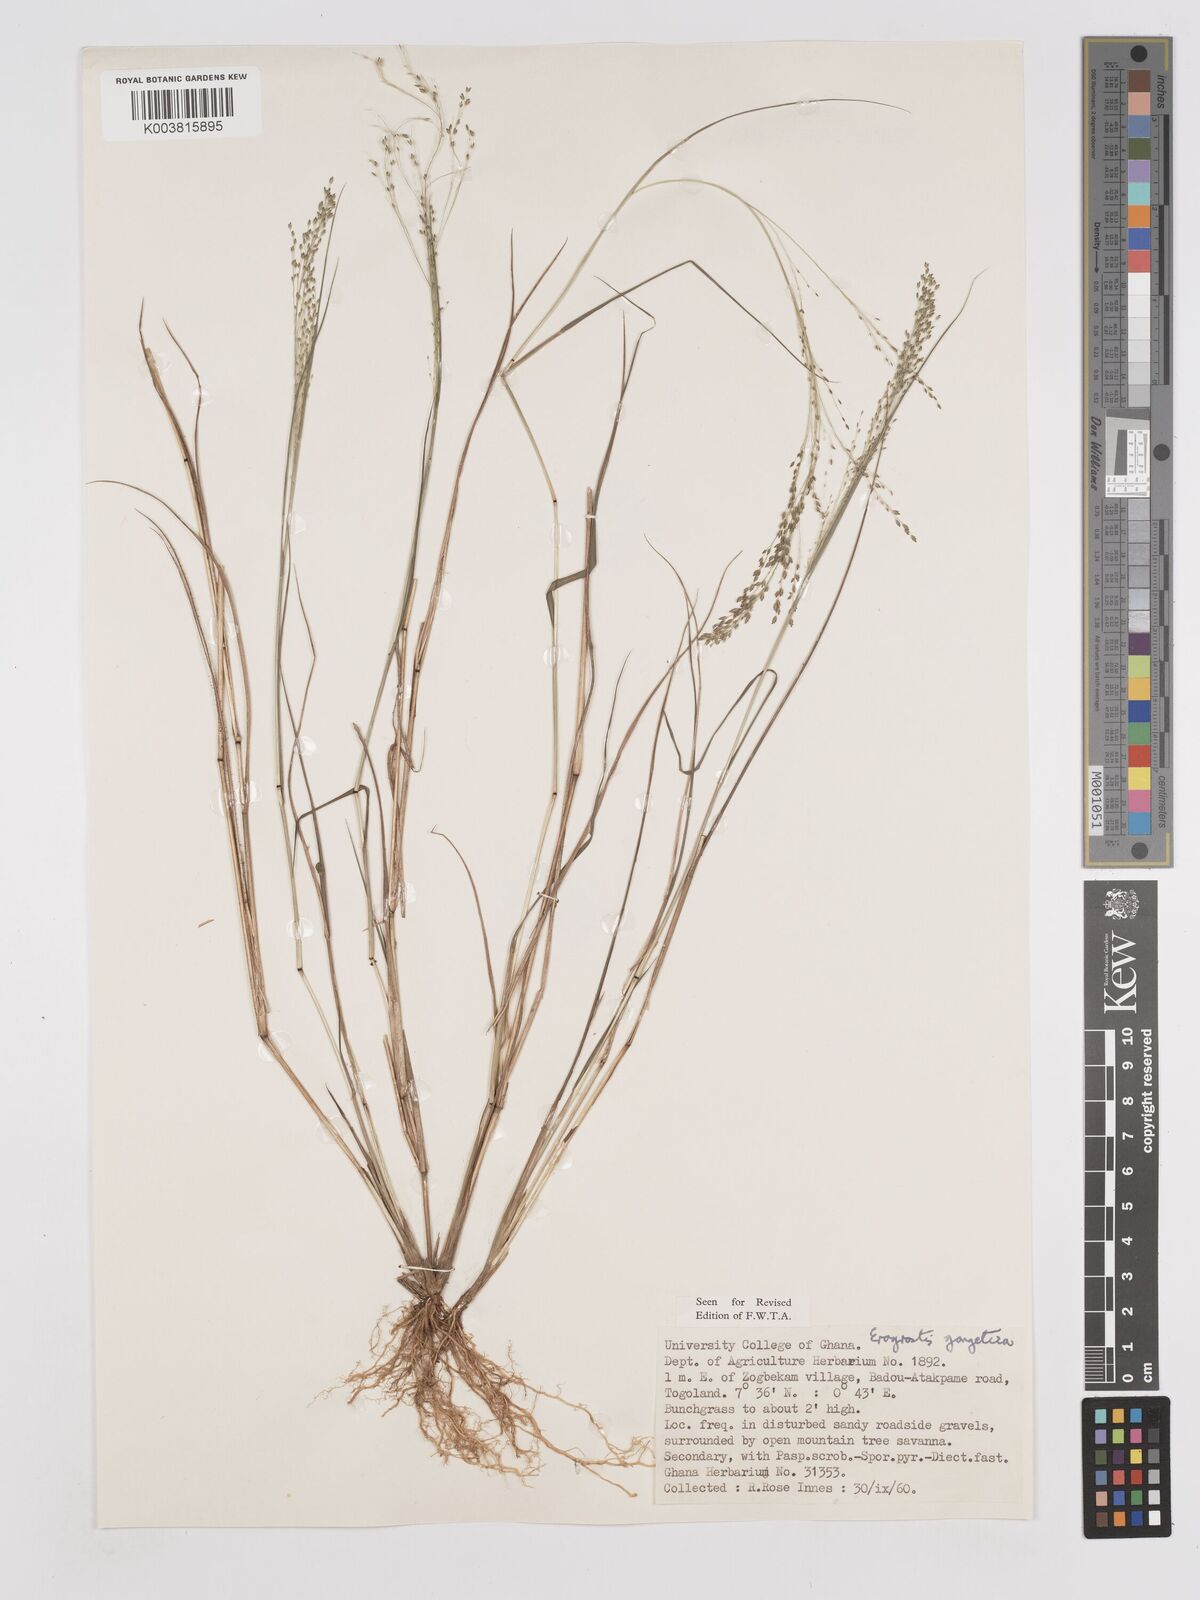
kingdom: Plantae
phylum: Tracheophyta
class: Liliopsida
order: Poales
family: Poaceae
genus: Eragrostis
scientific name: Eragrostis gangetica
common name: Slimflower lovegrass
